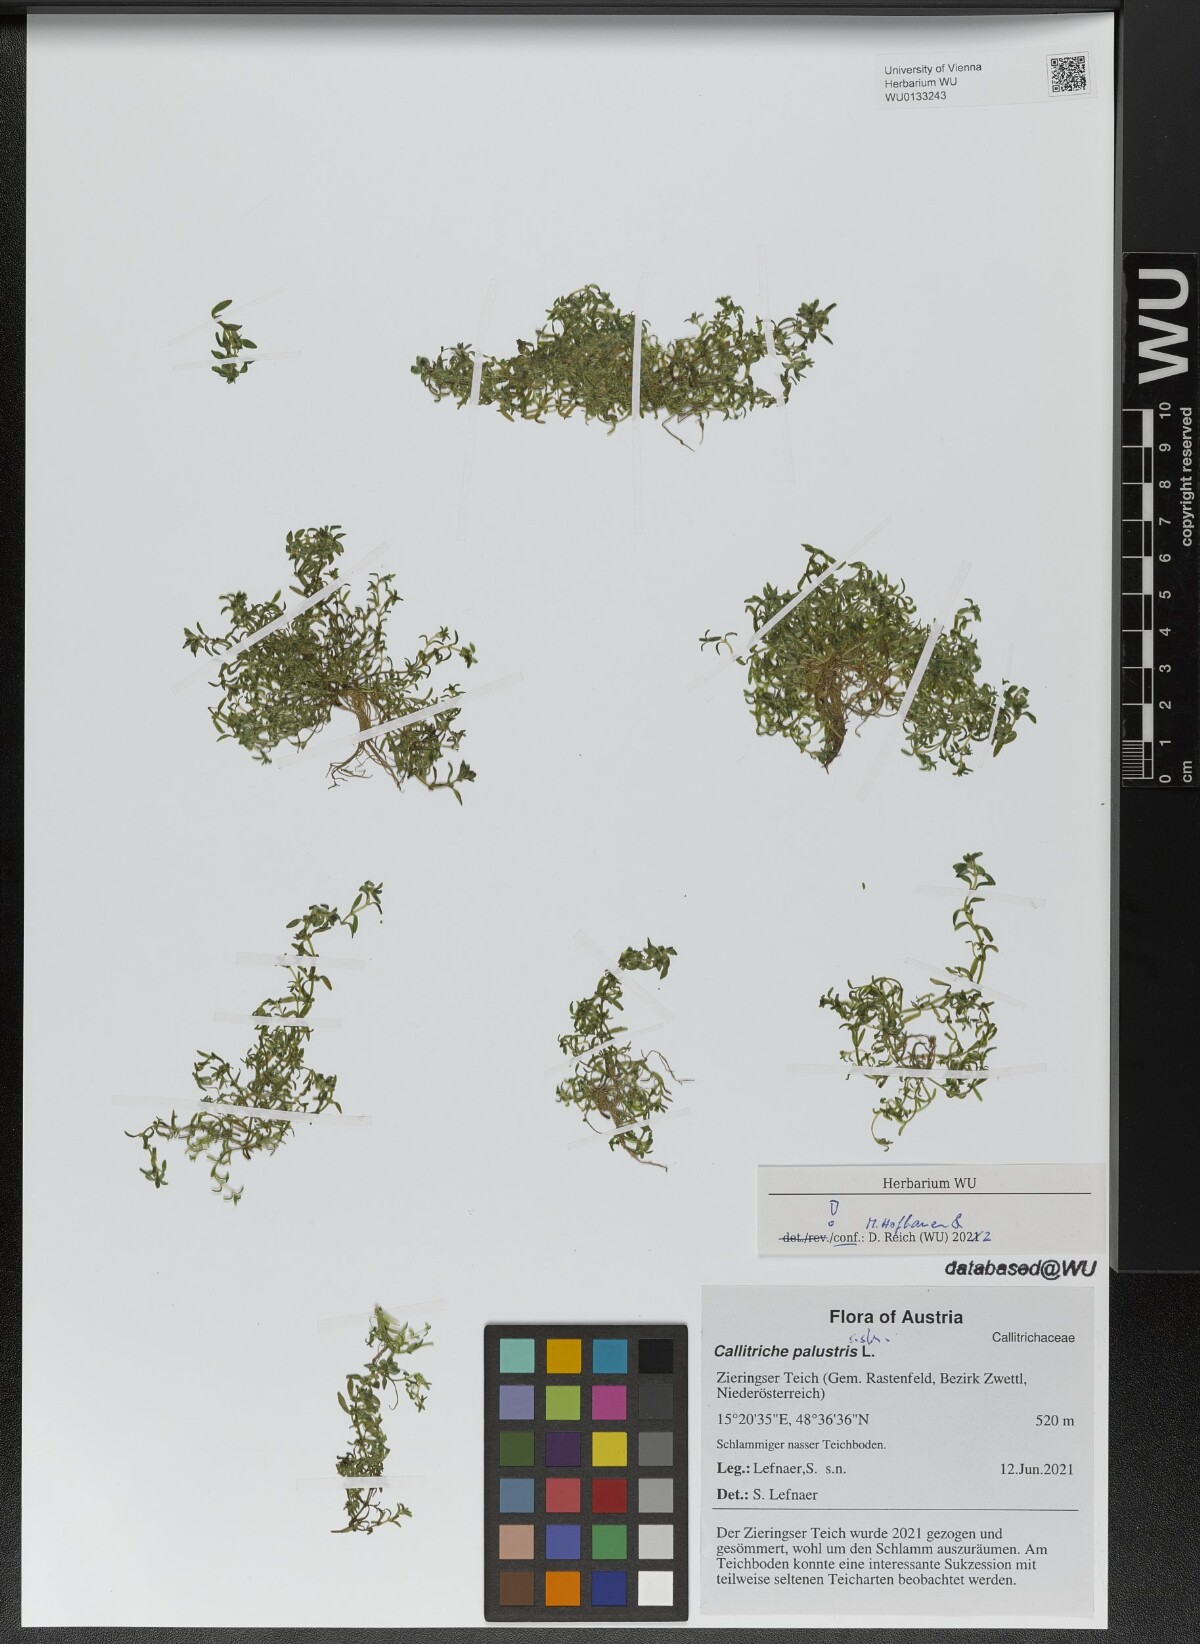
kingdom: Plantae
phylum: Tracheophyta
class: Magnoliopsida
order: Lamiales
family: Plantaginaceae
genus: Callitriche
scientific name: Callitriche palustris
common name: Spring water-starwort
